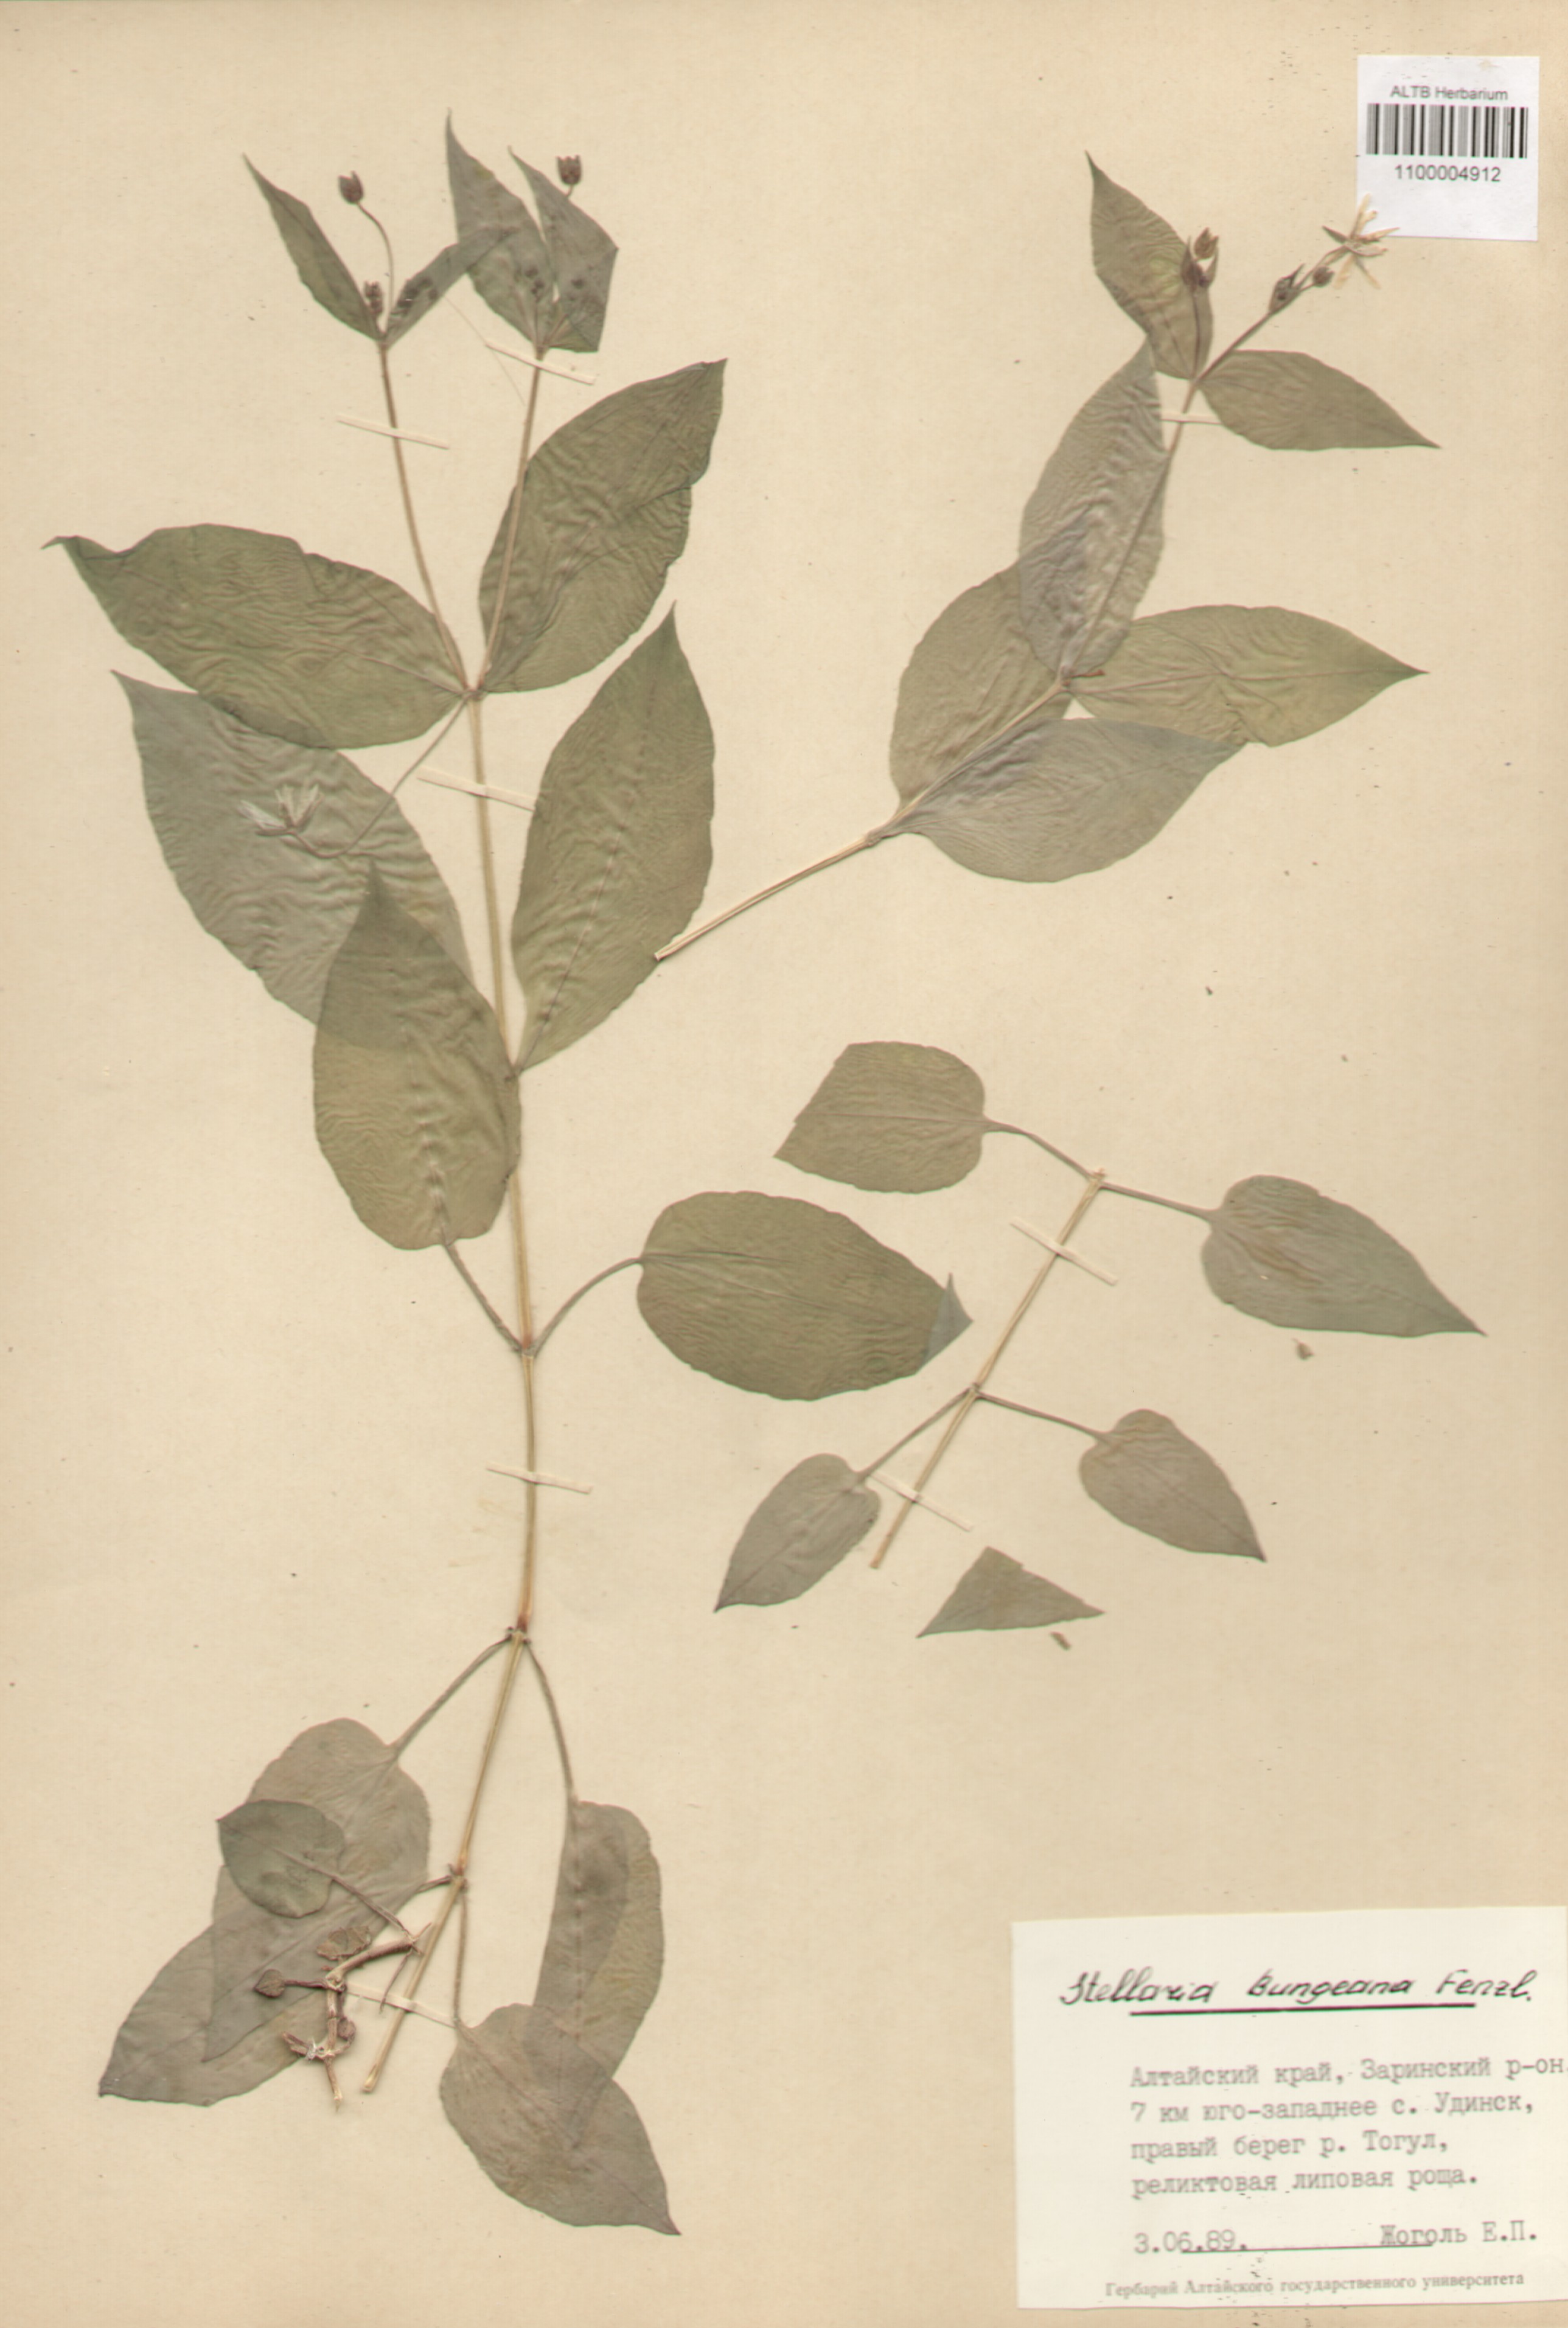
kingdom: Plantae
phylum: Tracheophyta
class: Magnoliopsida
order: Caryophyllales
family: Caryophyllaceae
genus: Stellaria
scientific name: Stellaria bungeana
